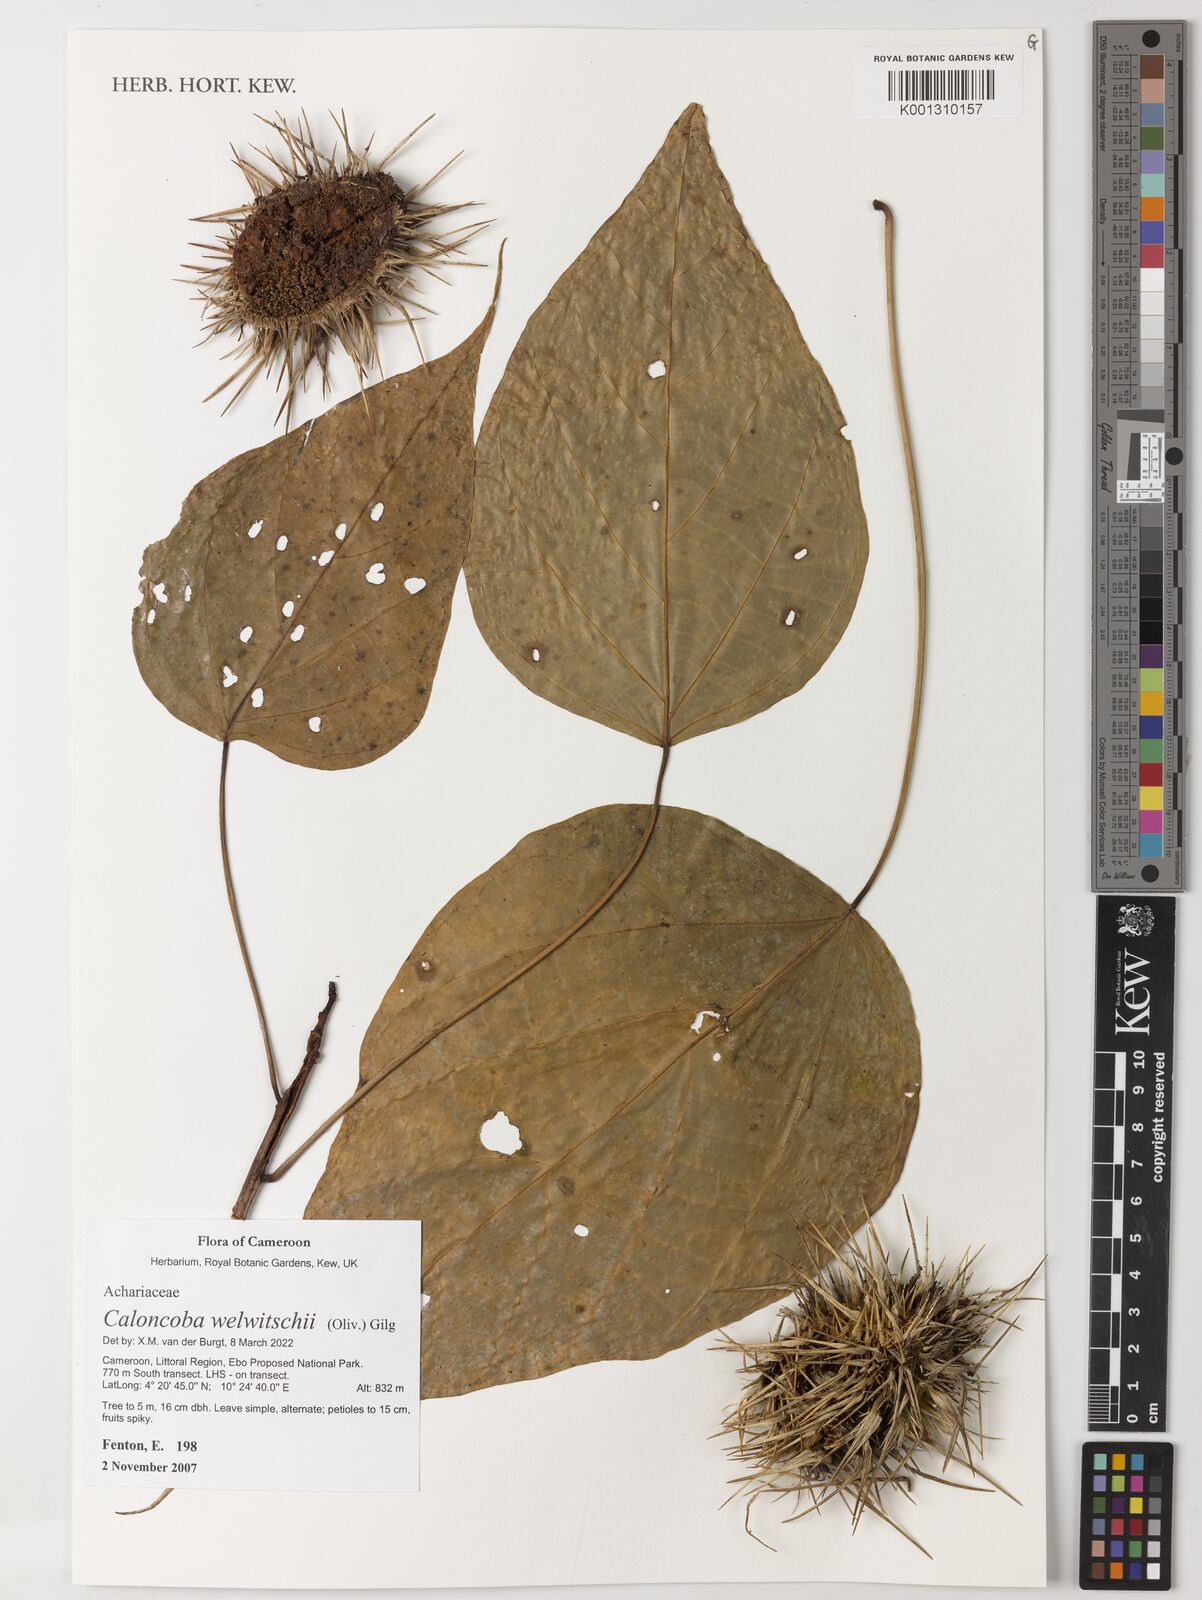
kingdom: Plantae
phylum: Tracheophyta
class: Magnoliopsida
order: Malpighiales
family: Achariaceae
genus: Caloncoba
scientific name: Caloncoba welwitschii
